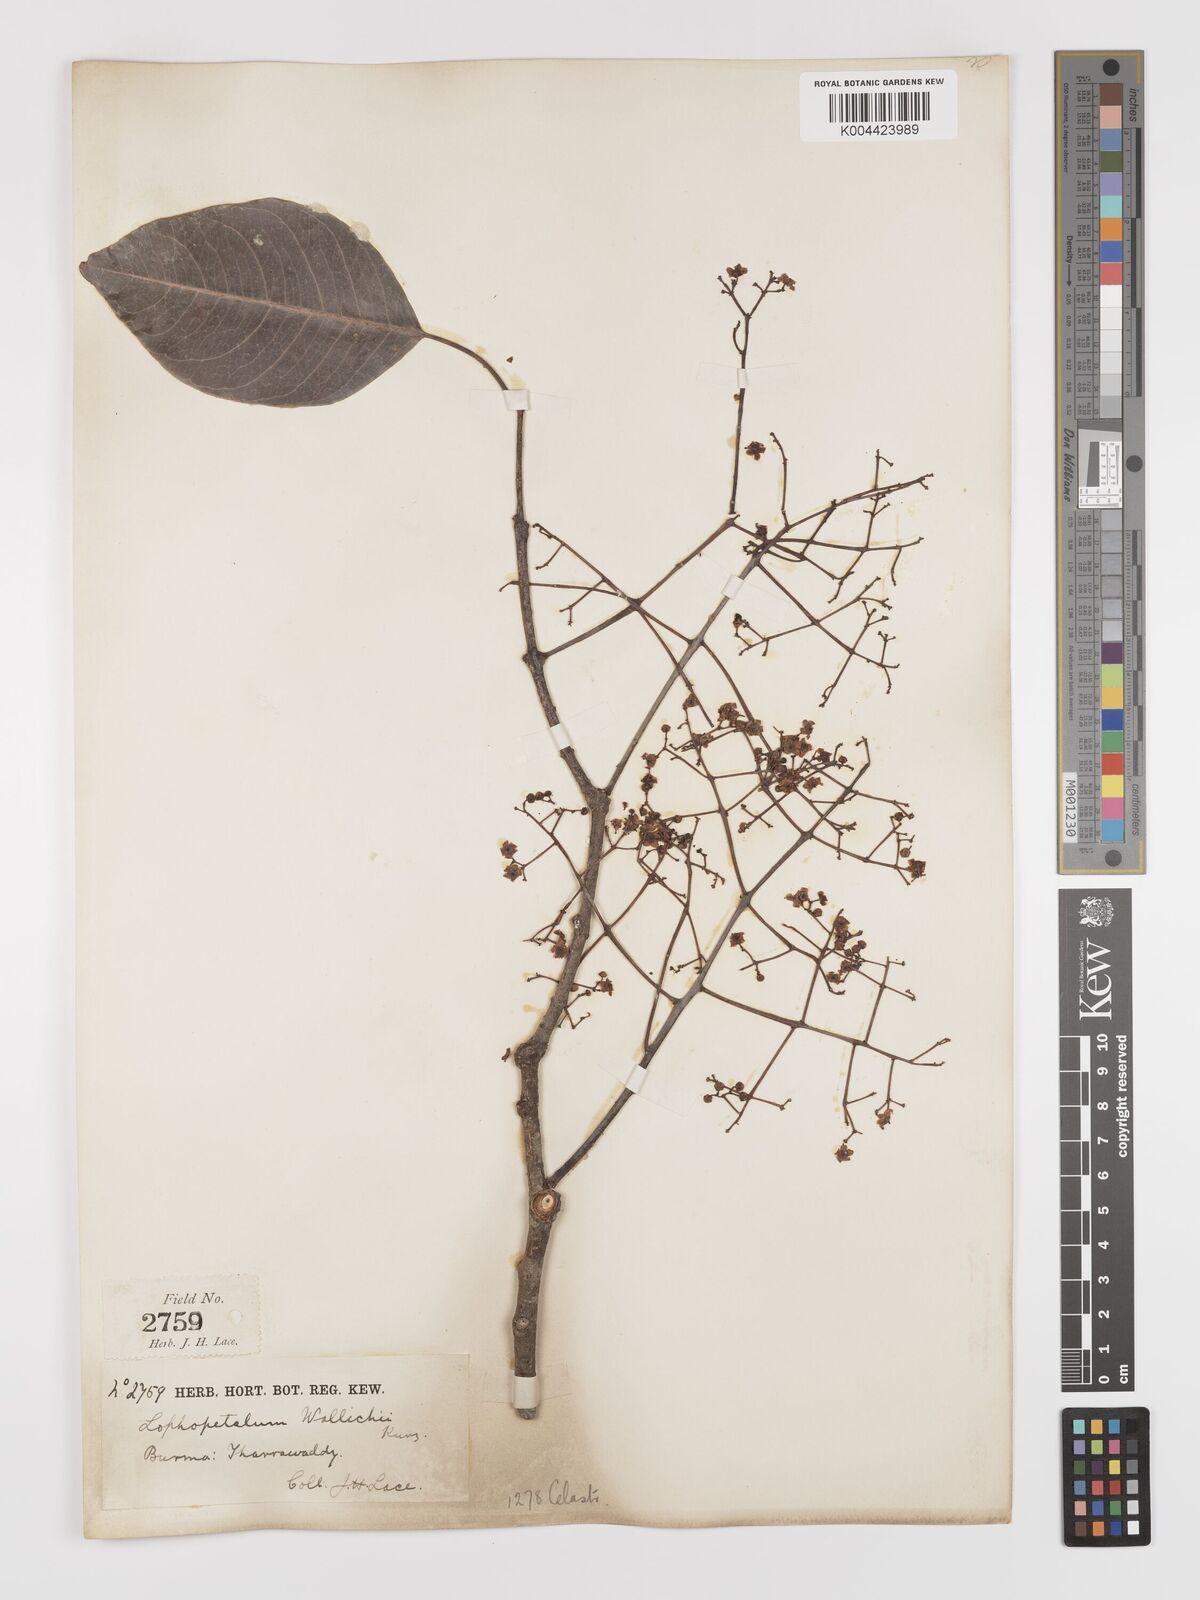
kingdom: Plantae
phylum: Tracheophyta
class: Magnoliopsida
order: Celastrales
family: Celastraceae
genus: Lophopetalum
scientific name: Lophopetalum wallichii
